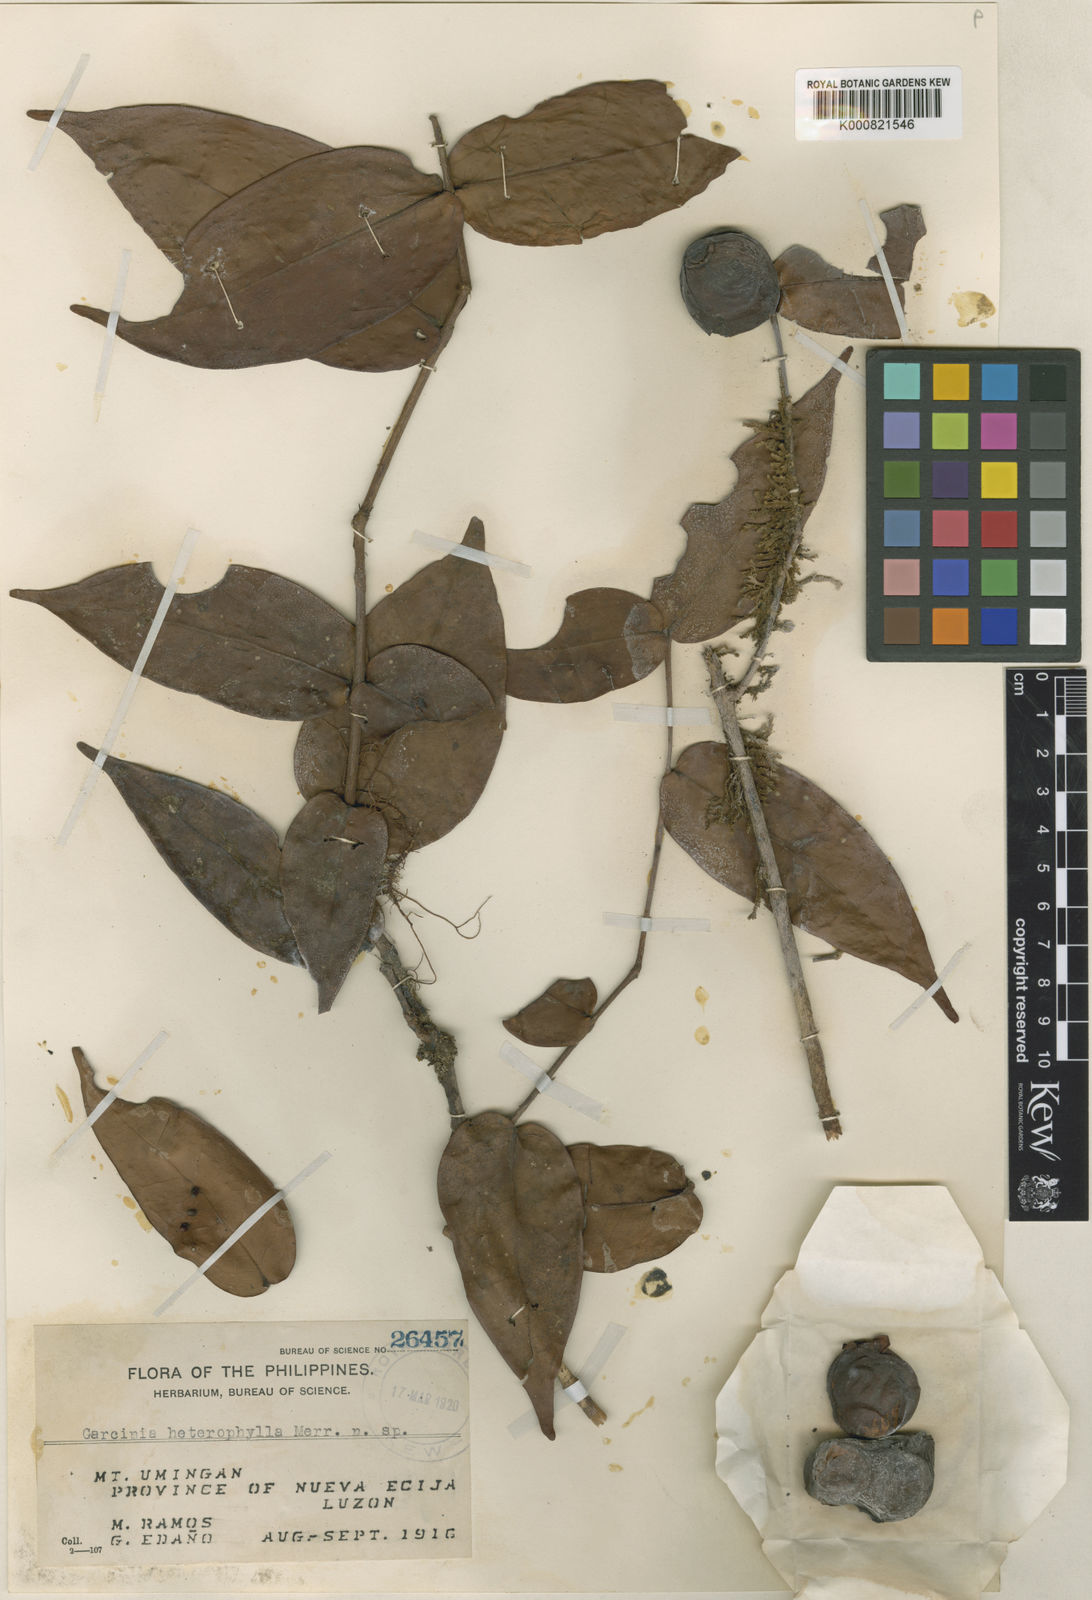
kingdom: Plantae
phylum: Tracheophyta
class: Magnoliopsida
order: Myrtales
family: Myrtaceae
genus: Eugenia
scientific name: Eugenia heterophylla
